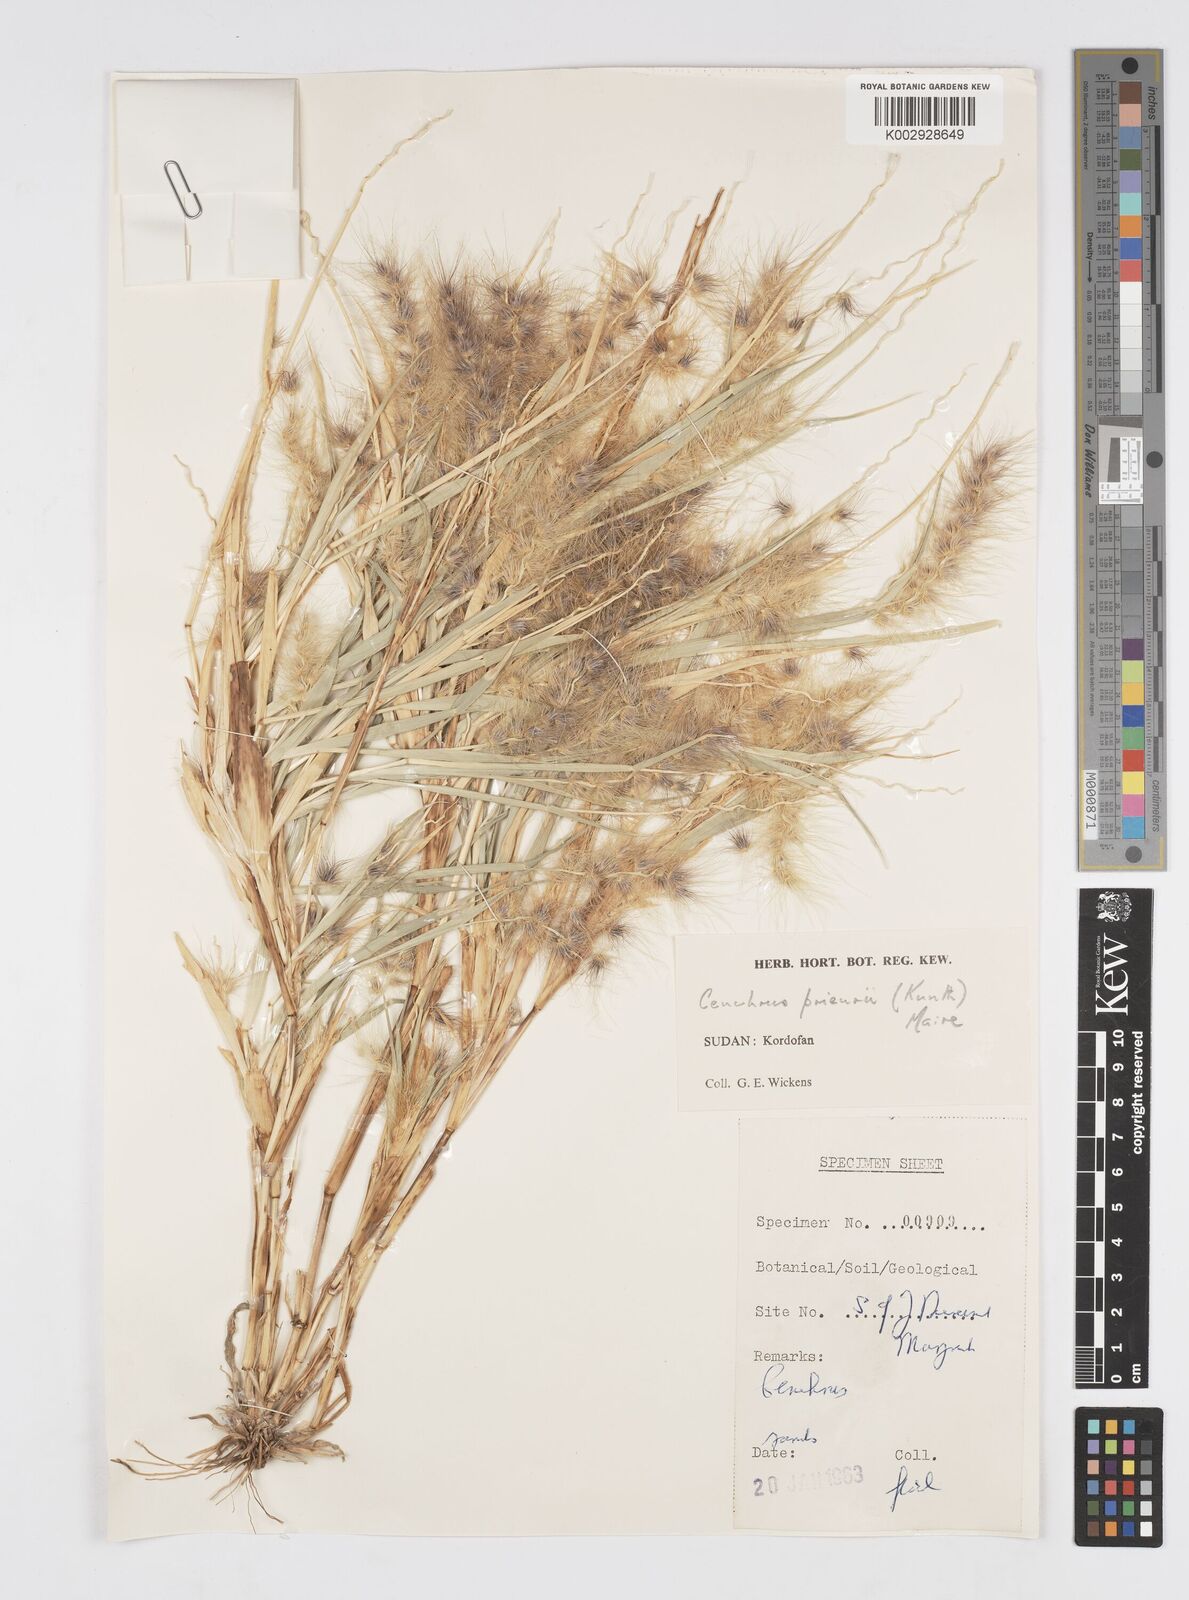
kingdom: Plantae
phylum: Tracheophyta
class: Liliopsida
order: Poales
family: Poaceae
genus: Cenchrus
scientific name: Cenchrus prieurii
